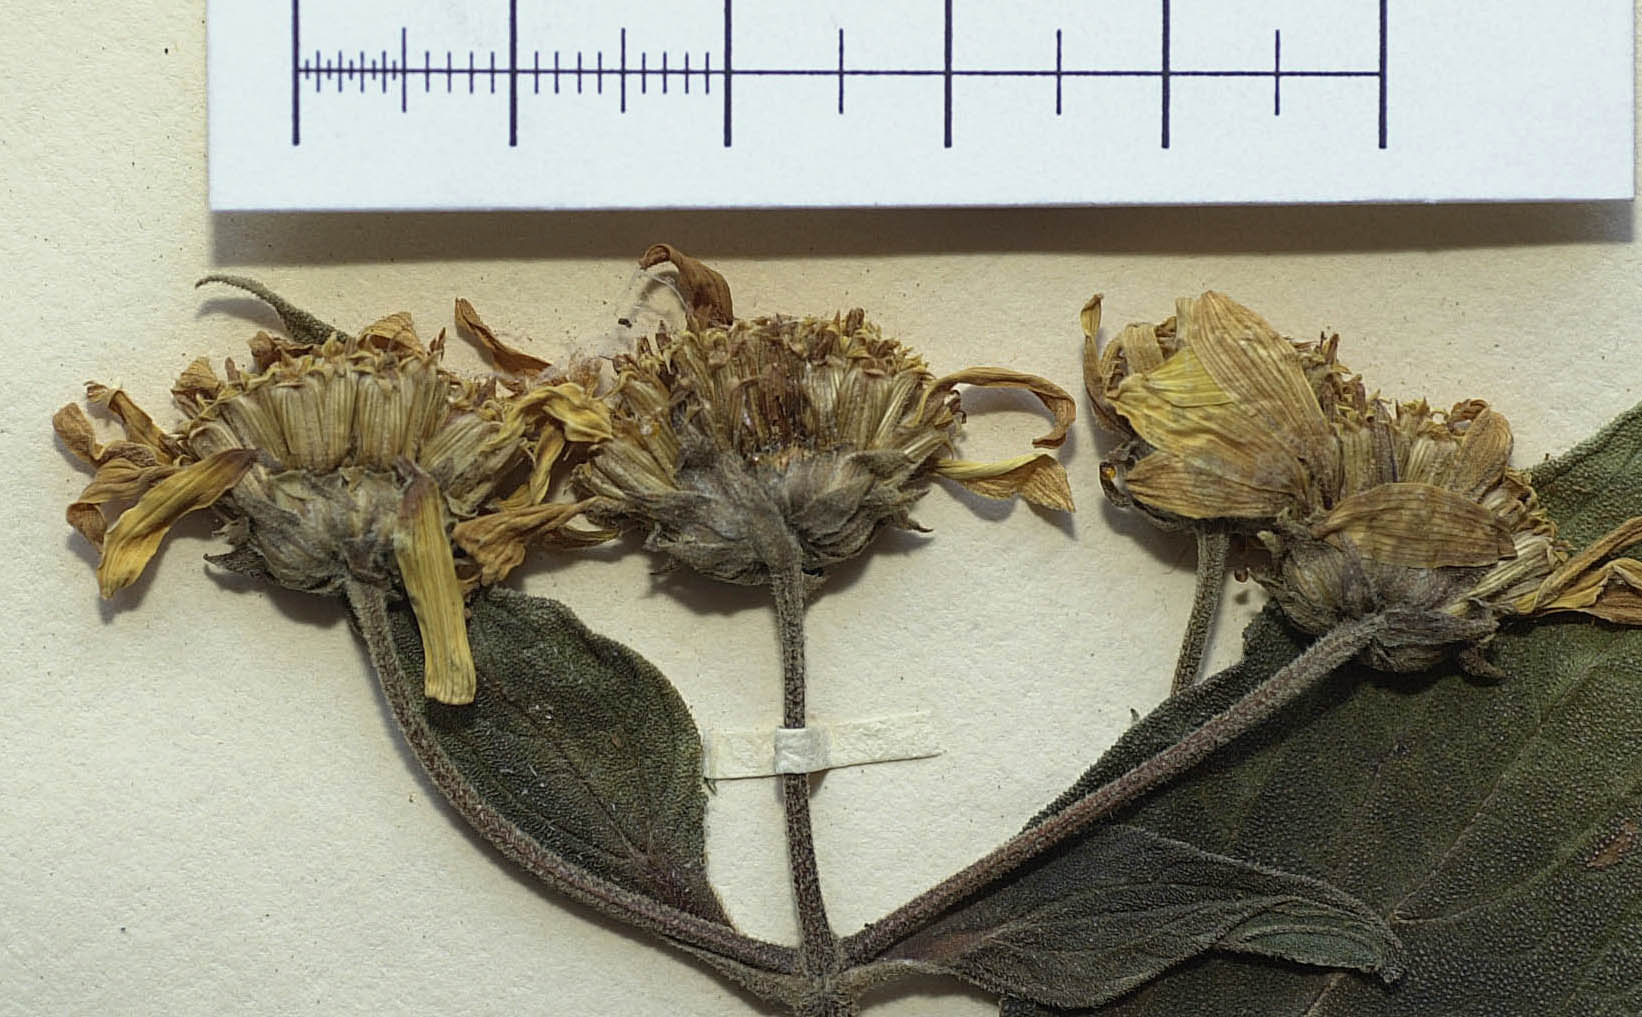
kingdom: Plantae
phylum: Tracheophyta
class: Magnoliopsida
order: Asterales
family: Asteraceae
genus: Dendroviguiera
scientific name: Dendroviguiera sphaerocephala
